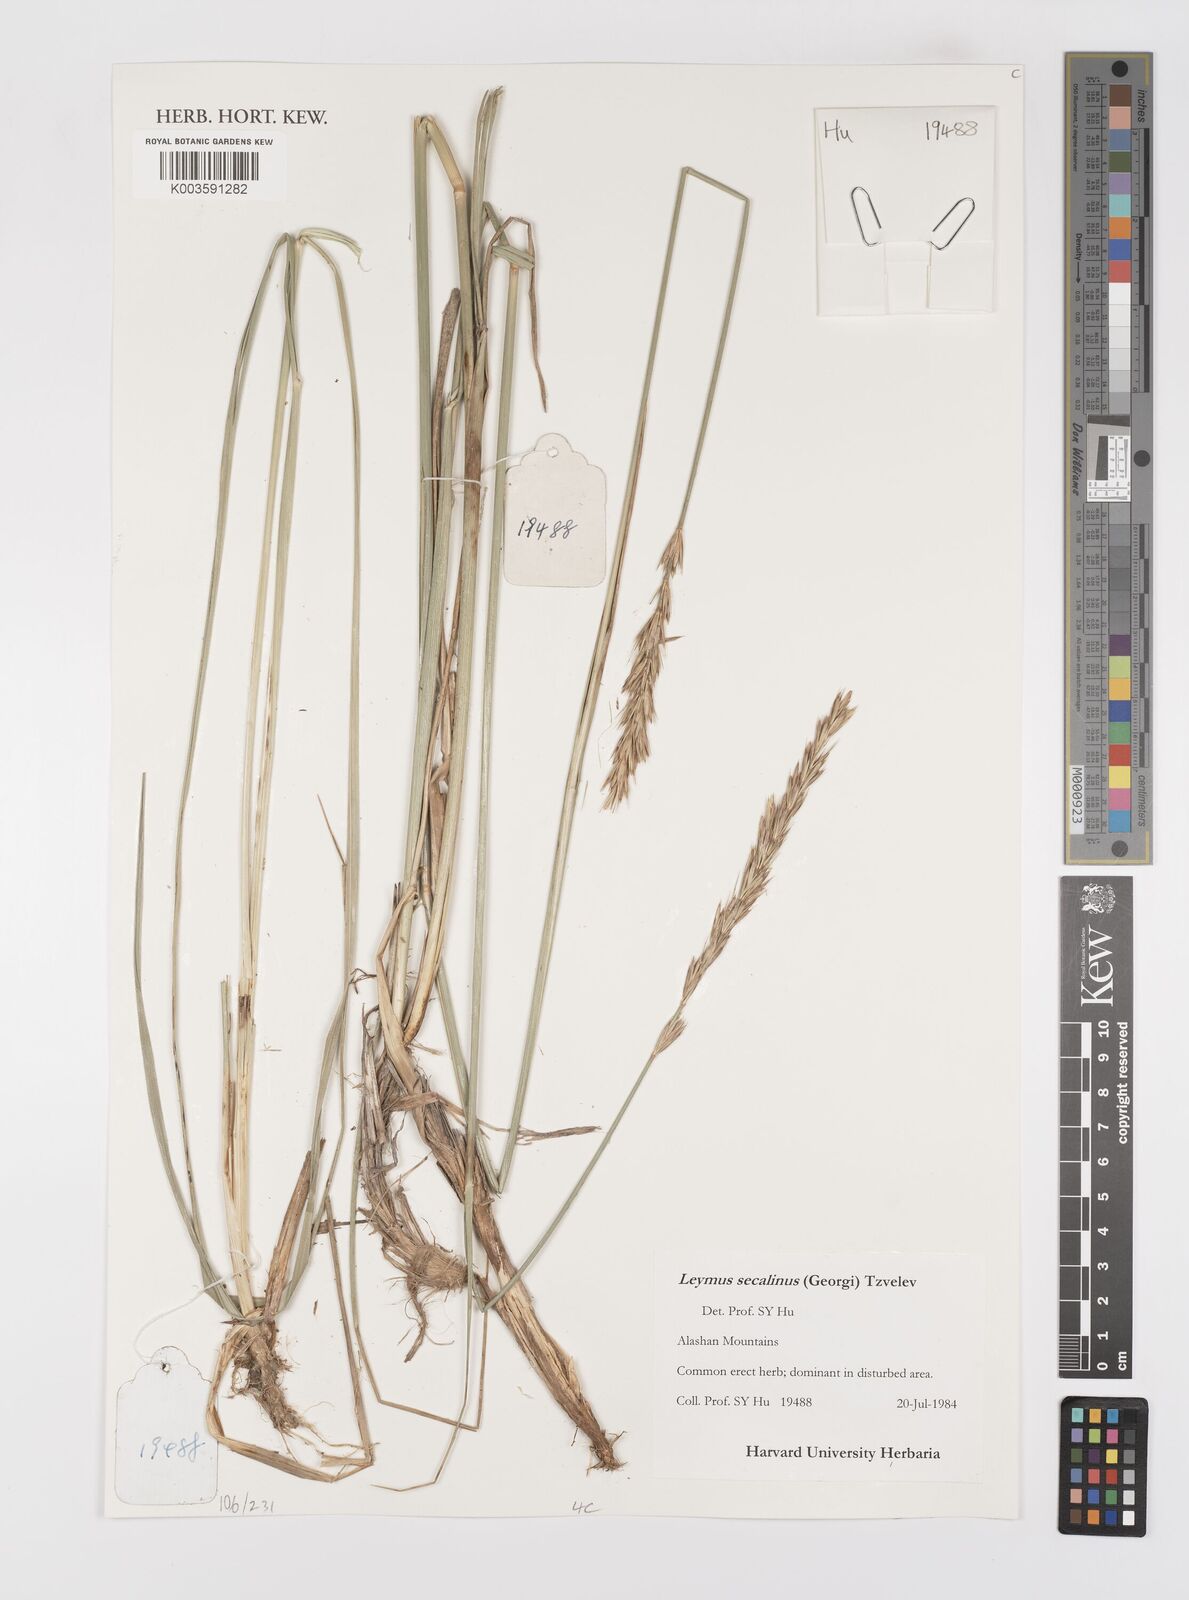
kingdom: Plantae
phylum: Tracheophyta
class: Liliopsida
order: Poales
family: Poaceae
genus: Leymus
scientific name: Leymus secalinus
